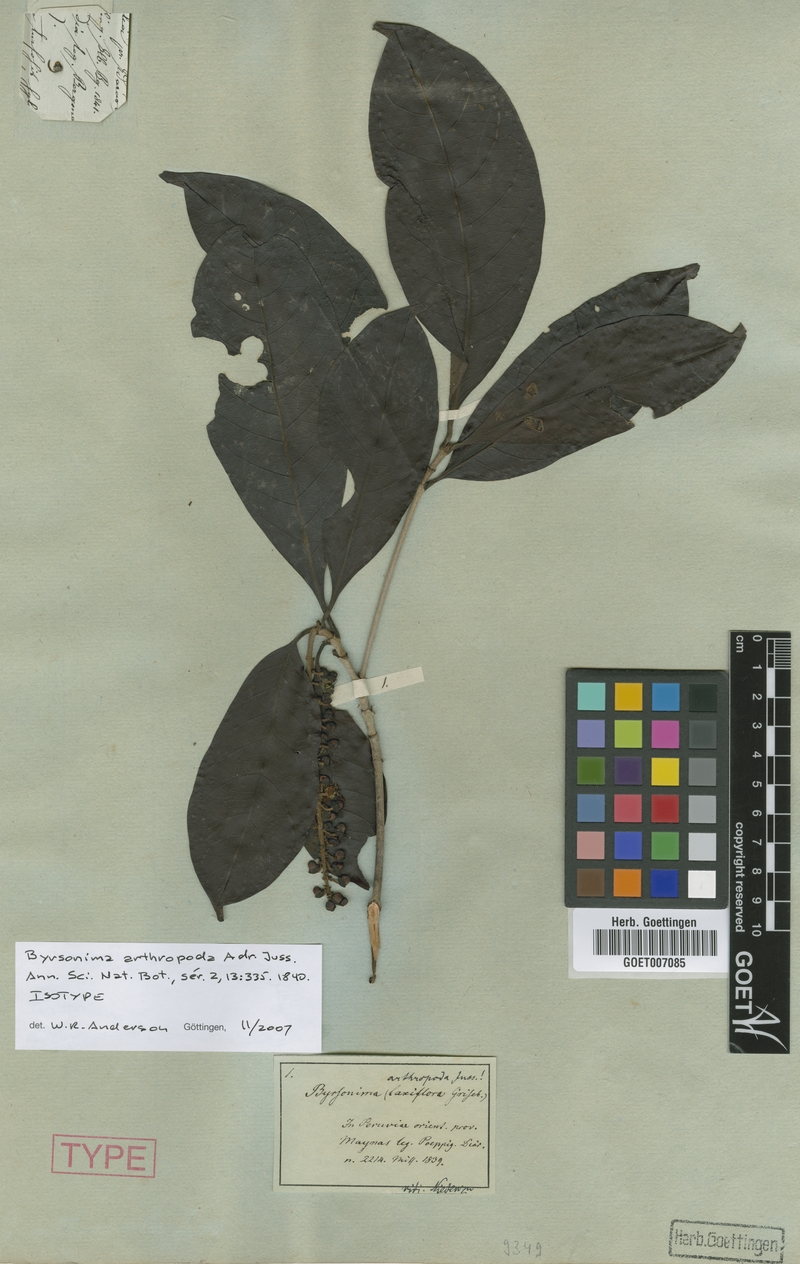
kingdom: Plantae
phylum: Tracheophyta
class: Magnoliopsida
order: Malpighiales
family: Malpighiaceae
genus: Byrsonima
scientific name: Byrsonima arthropoda
